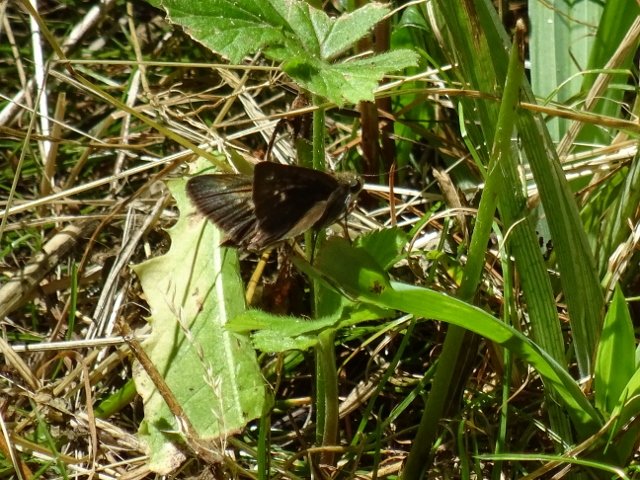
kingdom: Animalia
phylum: Arthropoda
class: Insecta
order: Lepidoptera
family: Hesperiidae
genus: Polites
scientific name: Polites egeremet
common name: Northern Broken-Dash
